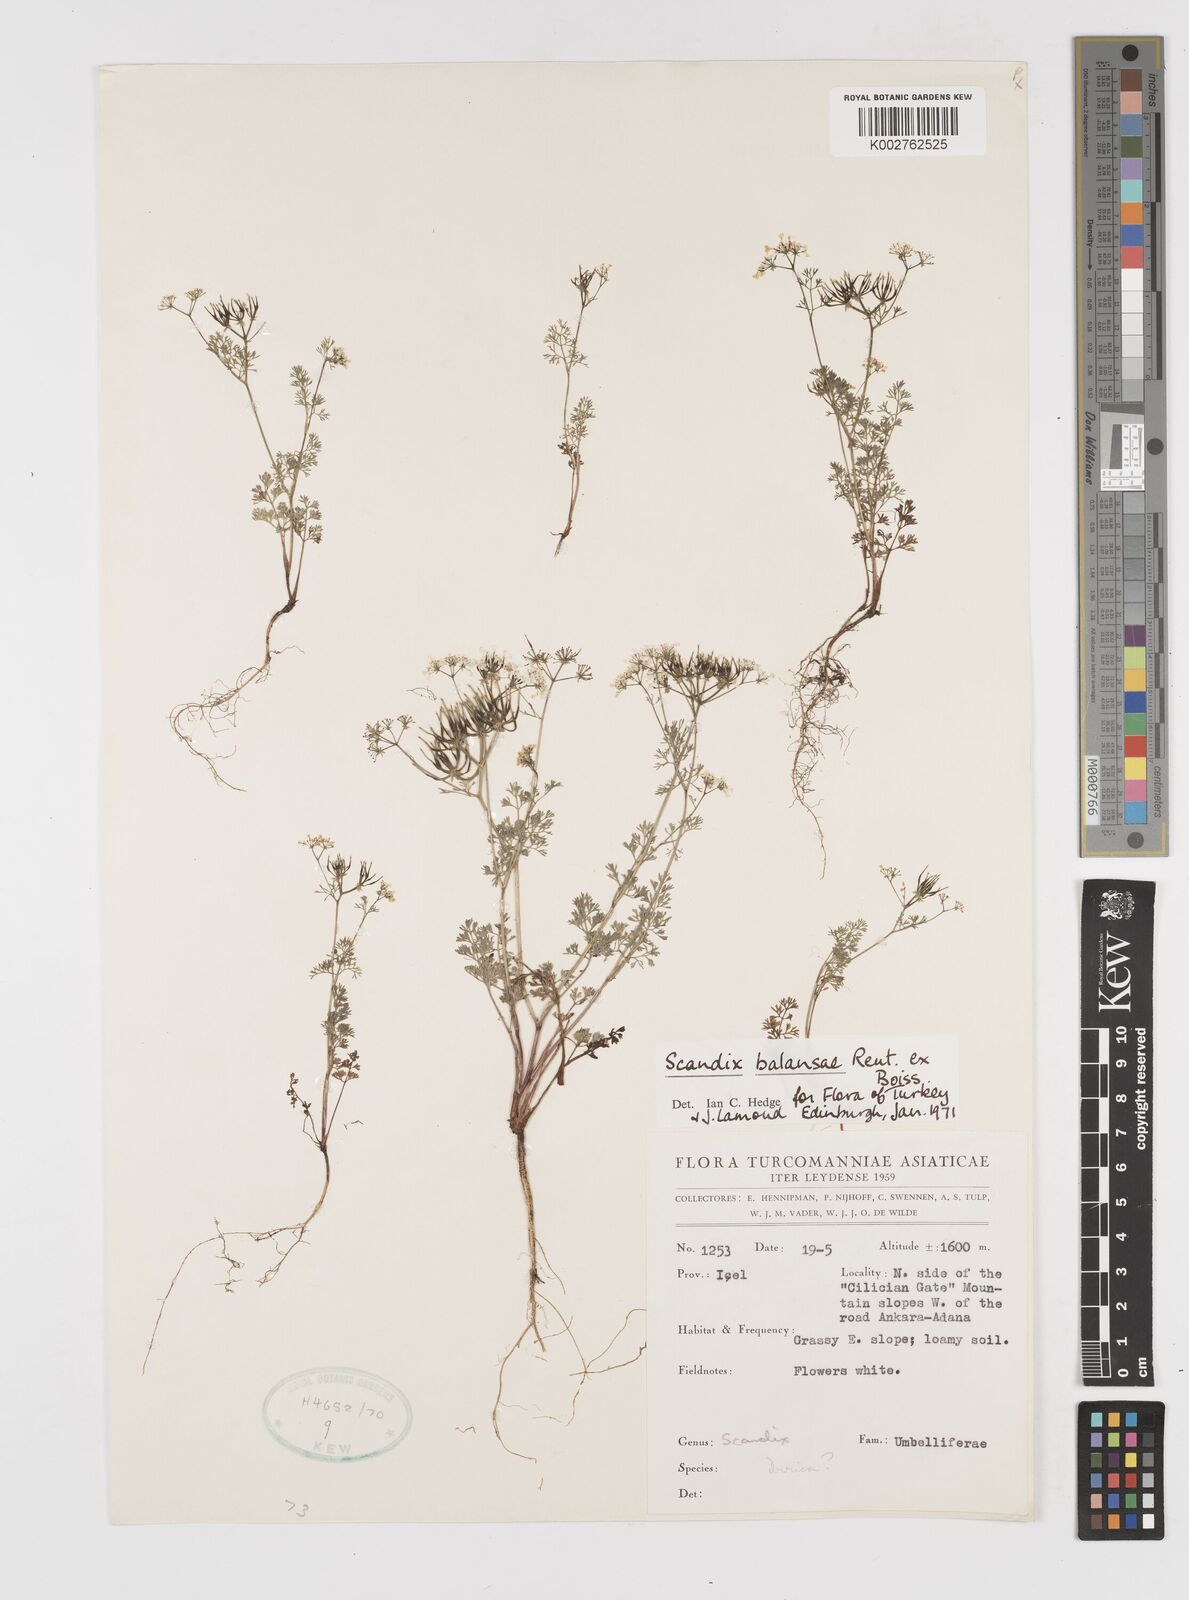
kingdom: Plantae
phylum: Tracheophyta
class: Magnoliopsida
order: Apiales
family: Apiaceae
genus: Scandix
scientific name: Scandix balansae
